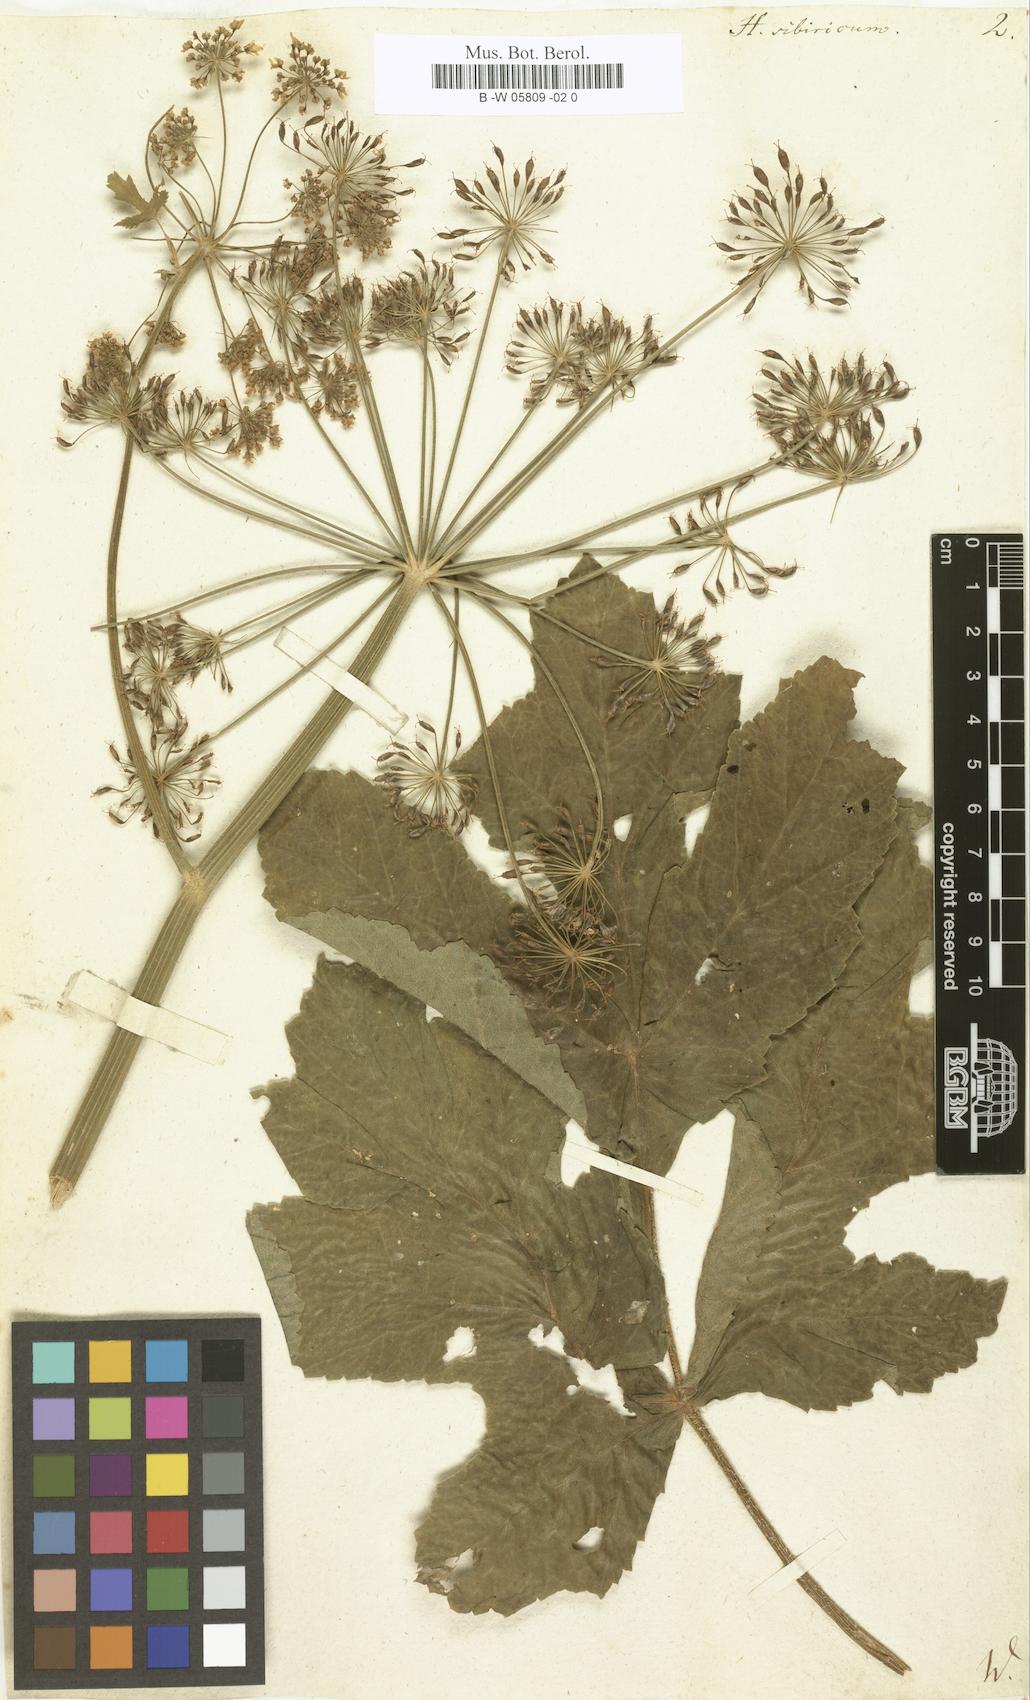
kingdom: Plantae
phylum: Tracheophyta
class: Magnoliopsida
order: Apiales
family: Apiaceae
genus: Heracleum
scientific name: Heracleum sphondylium
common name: Hogweed
